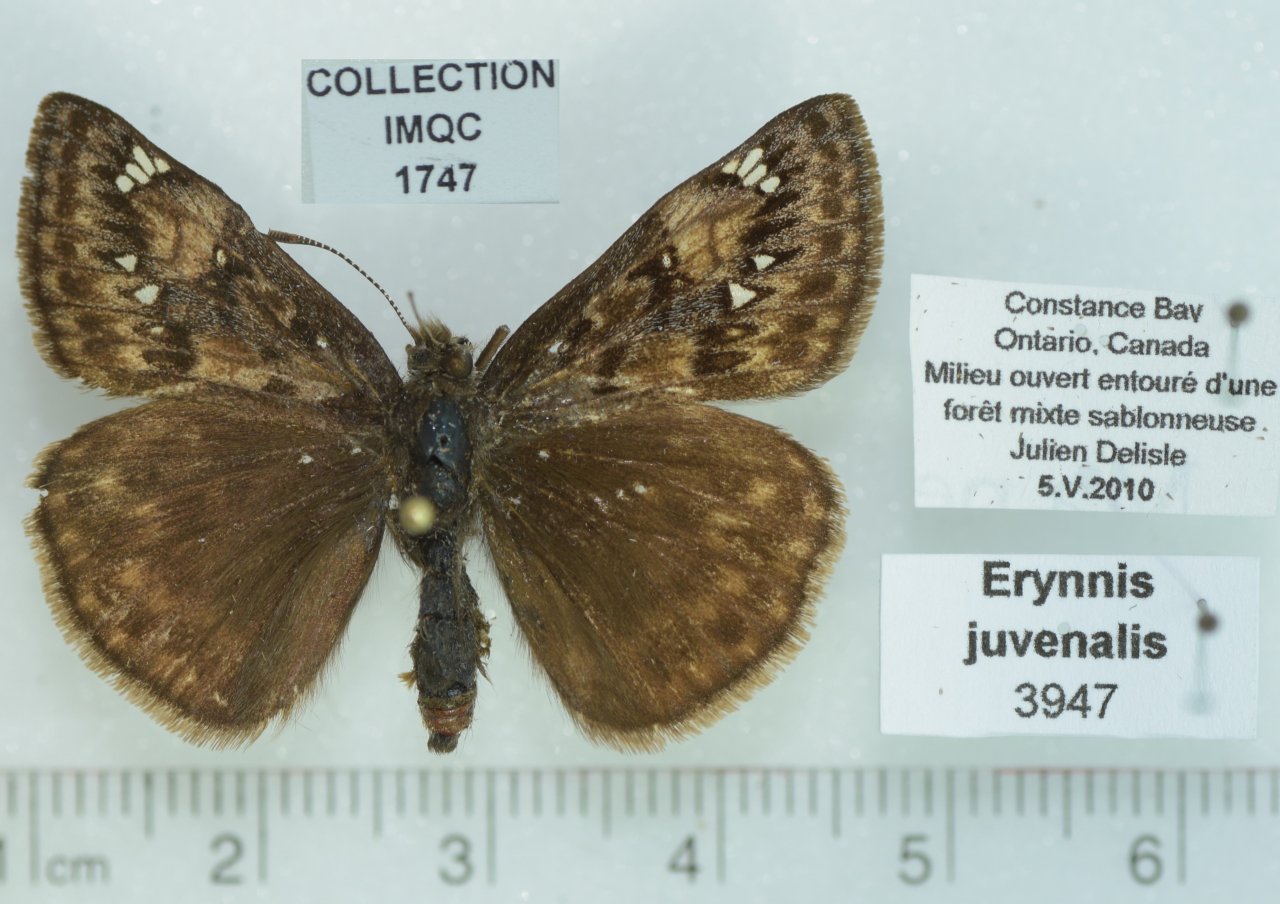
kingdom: Animalia
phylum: Arthropoda
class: Insecta
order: Lepidoptera
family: Hesperiidae
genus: Gesta
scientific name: Gesta
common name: Juvenal's Duskywing
